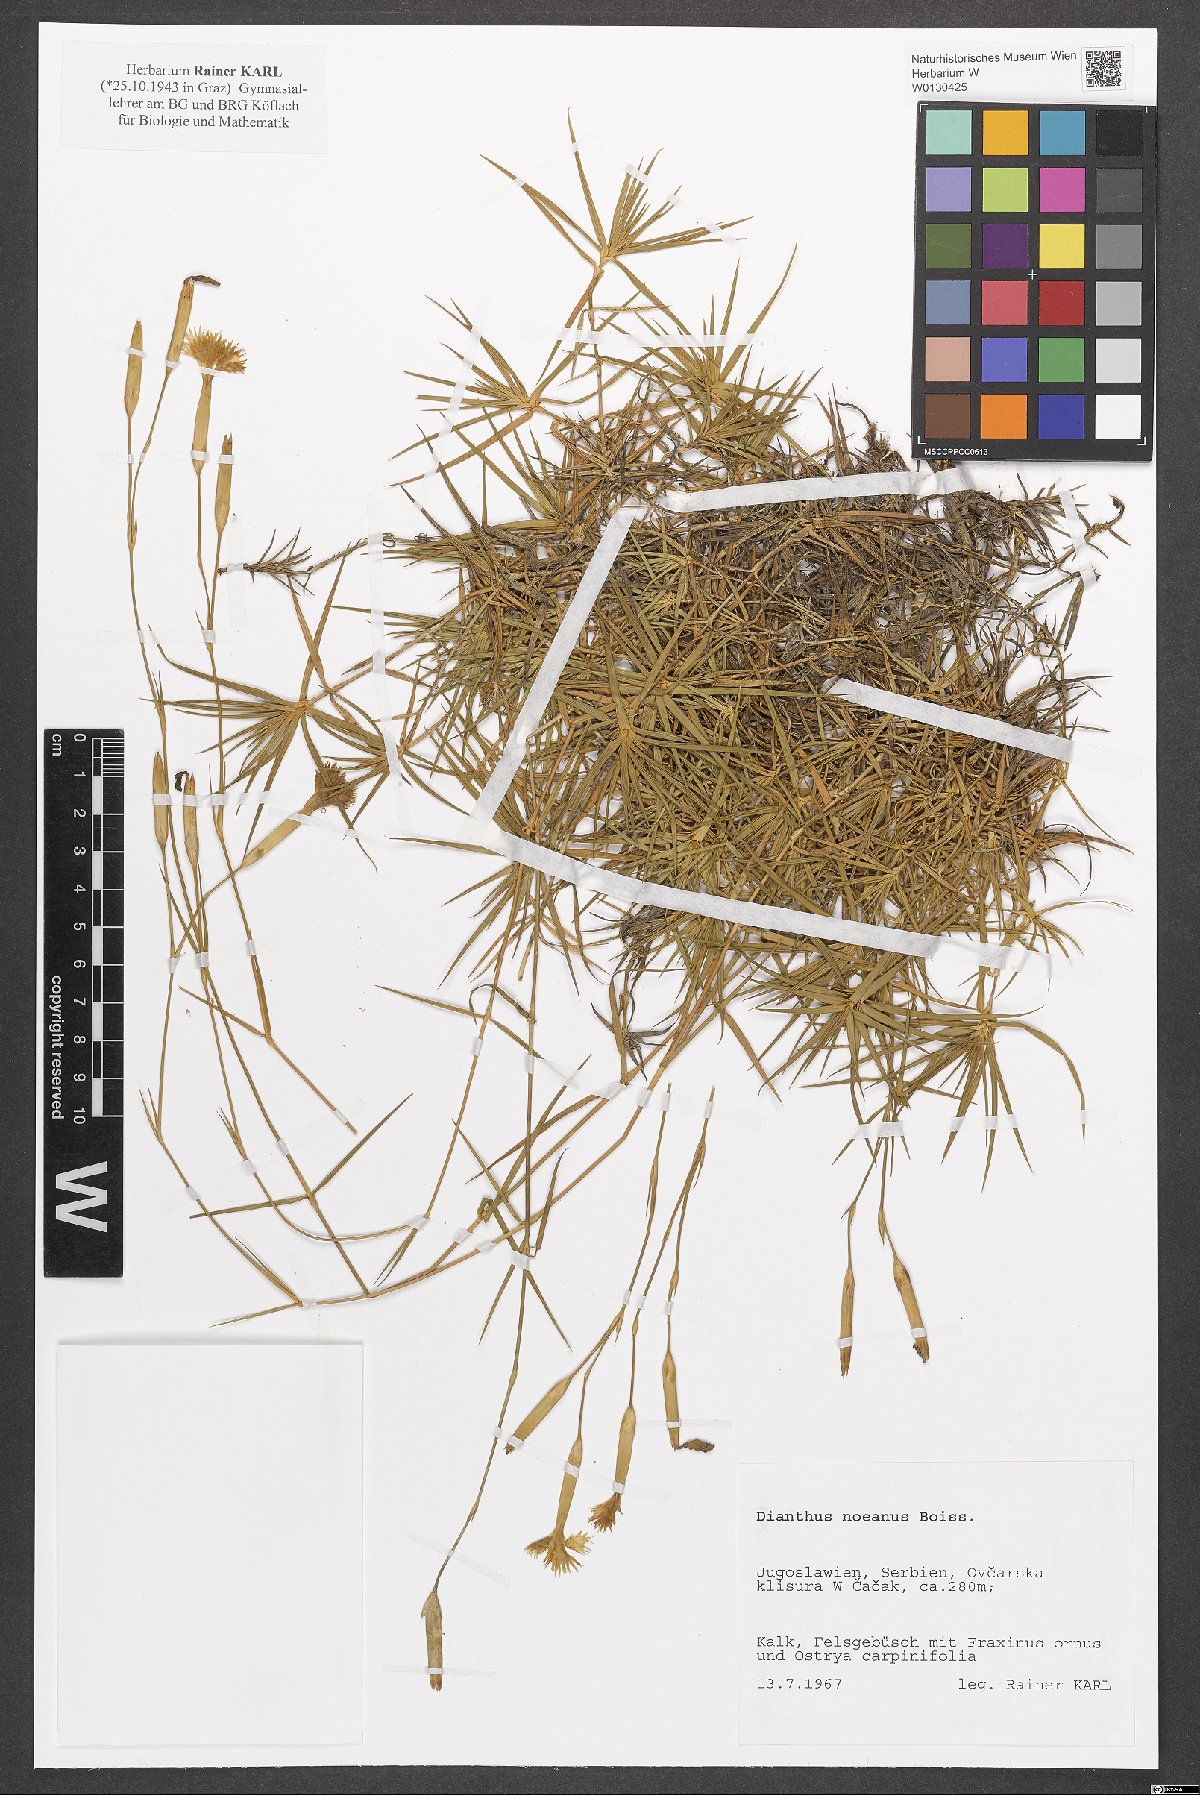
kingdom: Plantae
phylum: Tracheophyta
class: Magnoliopsida
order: Caryophyllales
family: Caryophyllaceae
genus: Dianthus
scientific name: Dianthus noeanus
